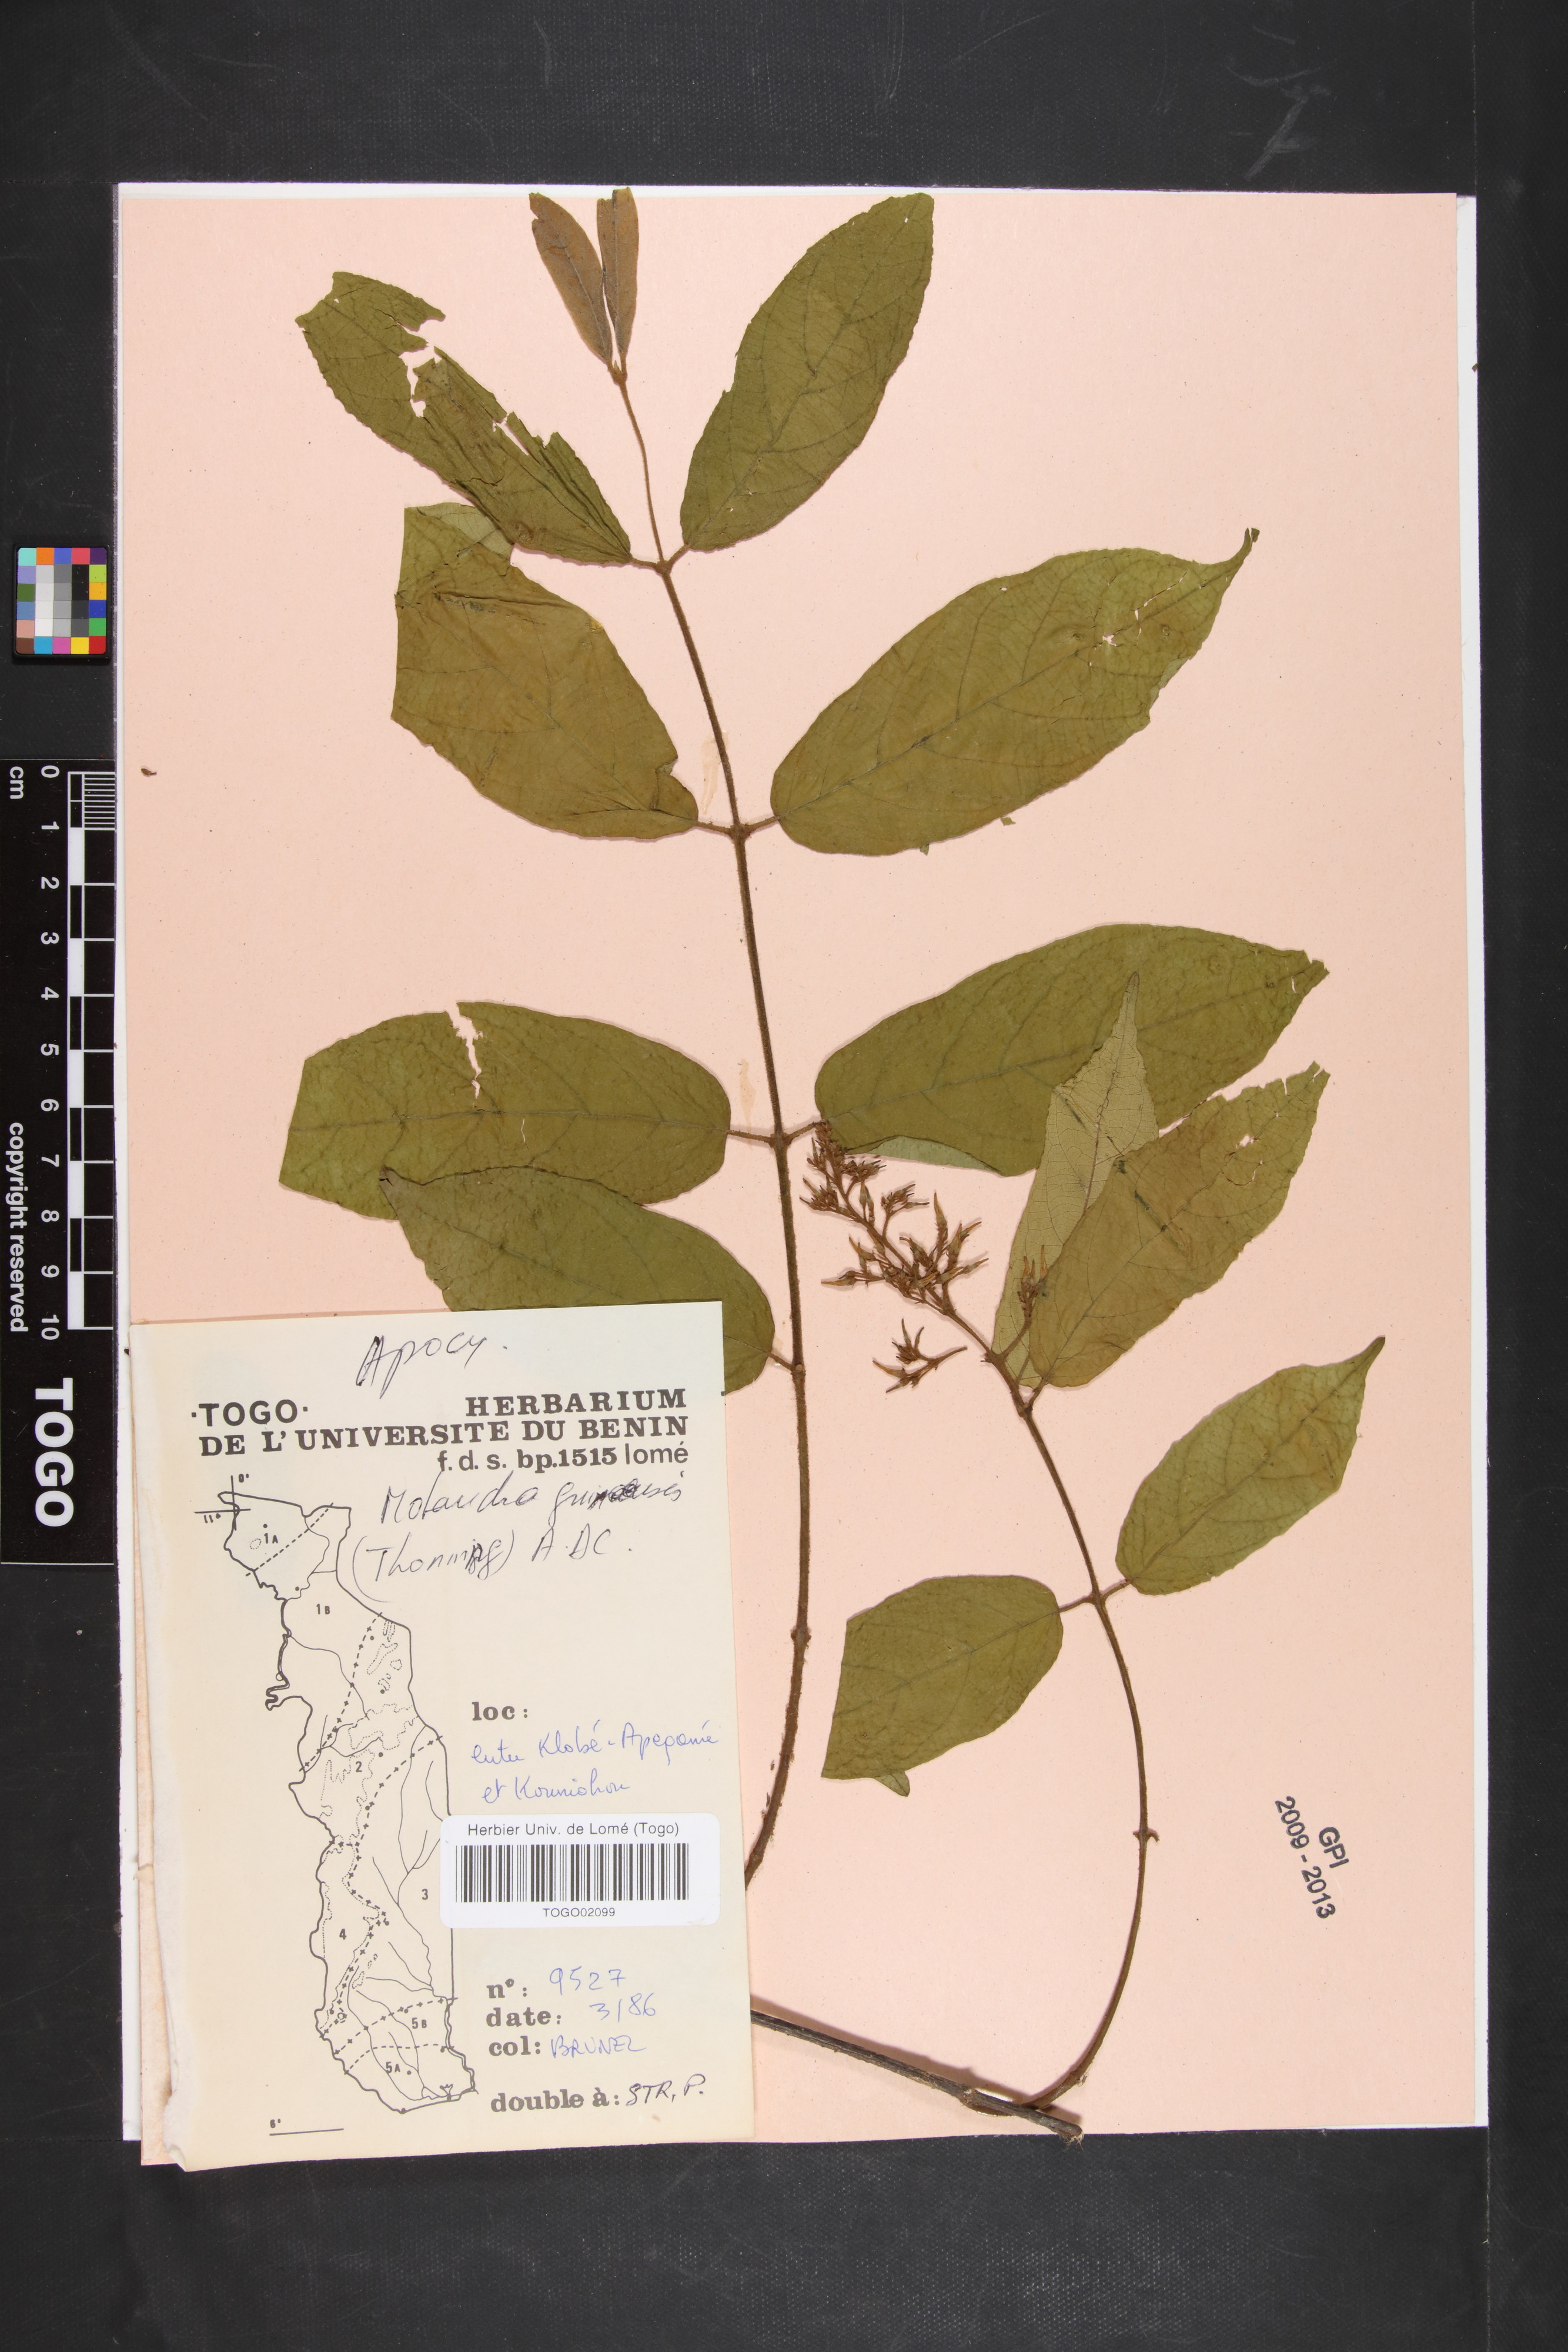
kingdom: Plantae
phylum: Tracheophyta
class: Magnoliopsida
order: Gentianales
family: Apocynaceae
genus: Motandra
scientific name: Motandra paniculata
